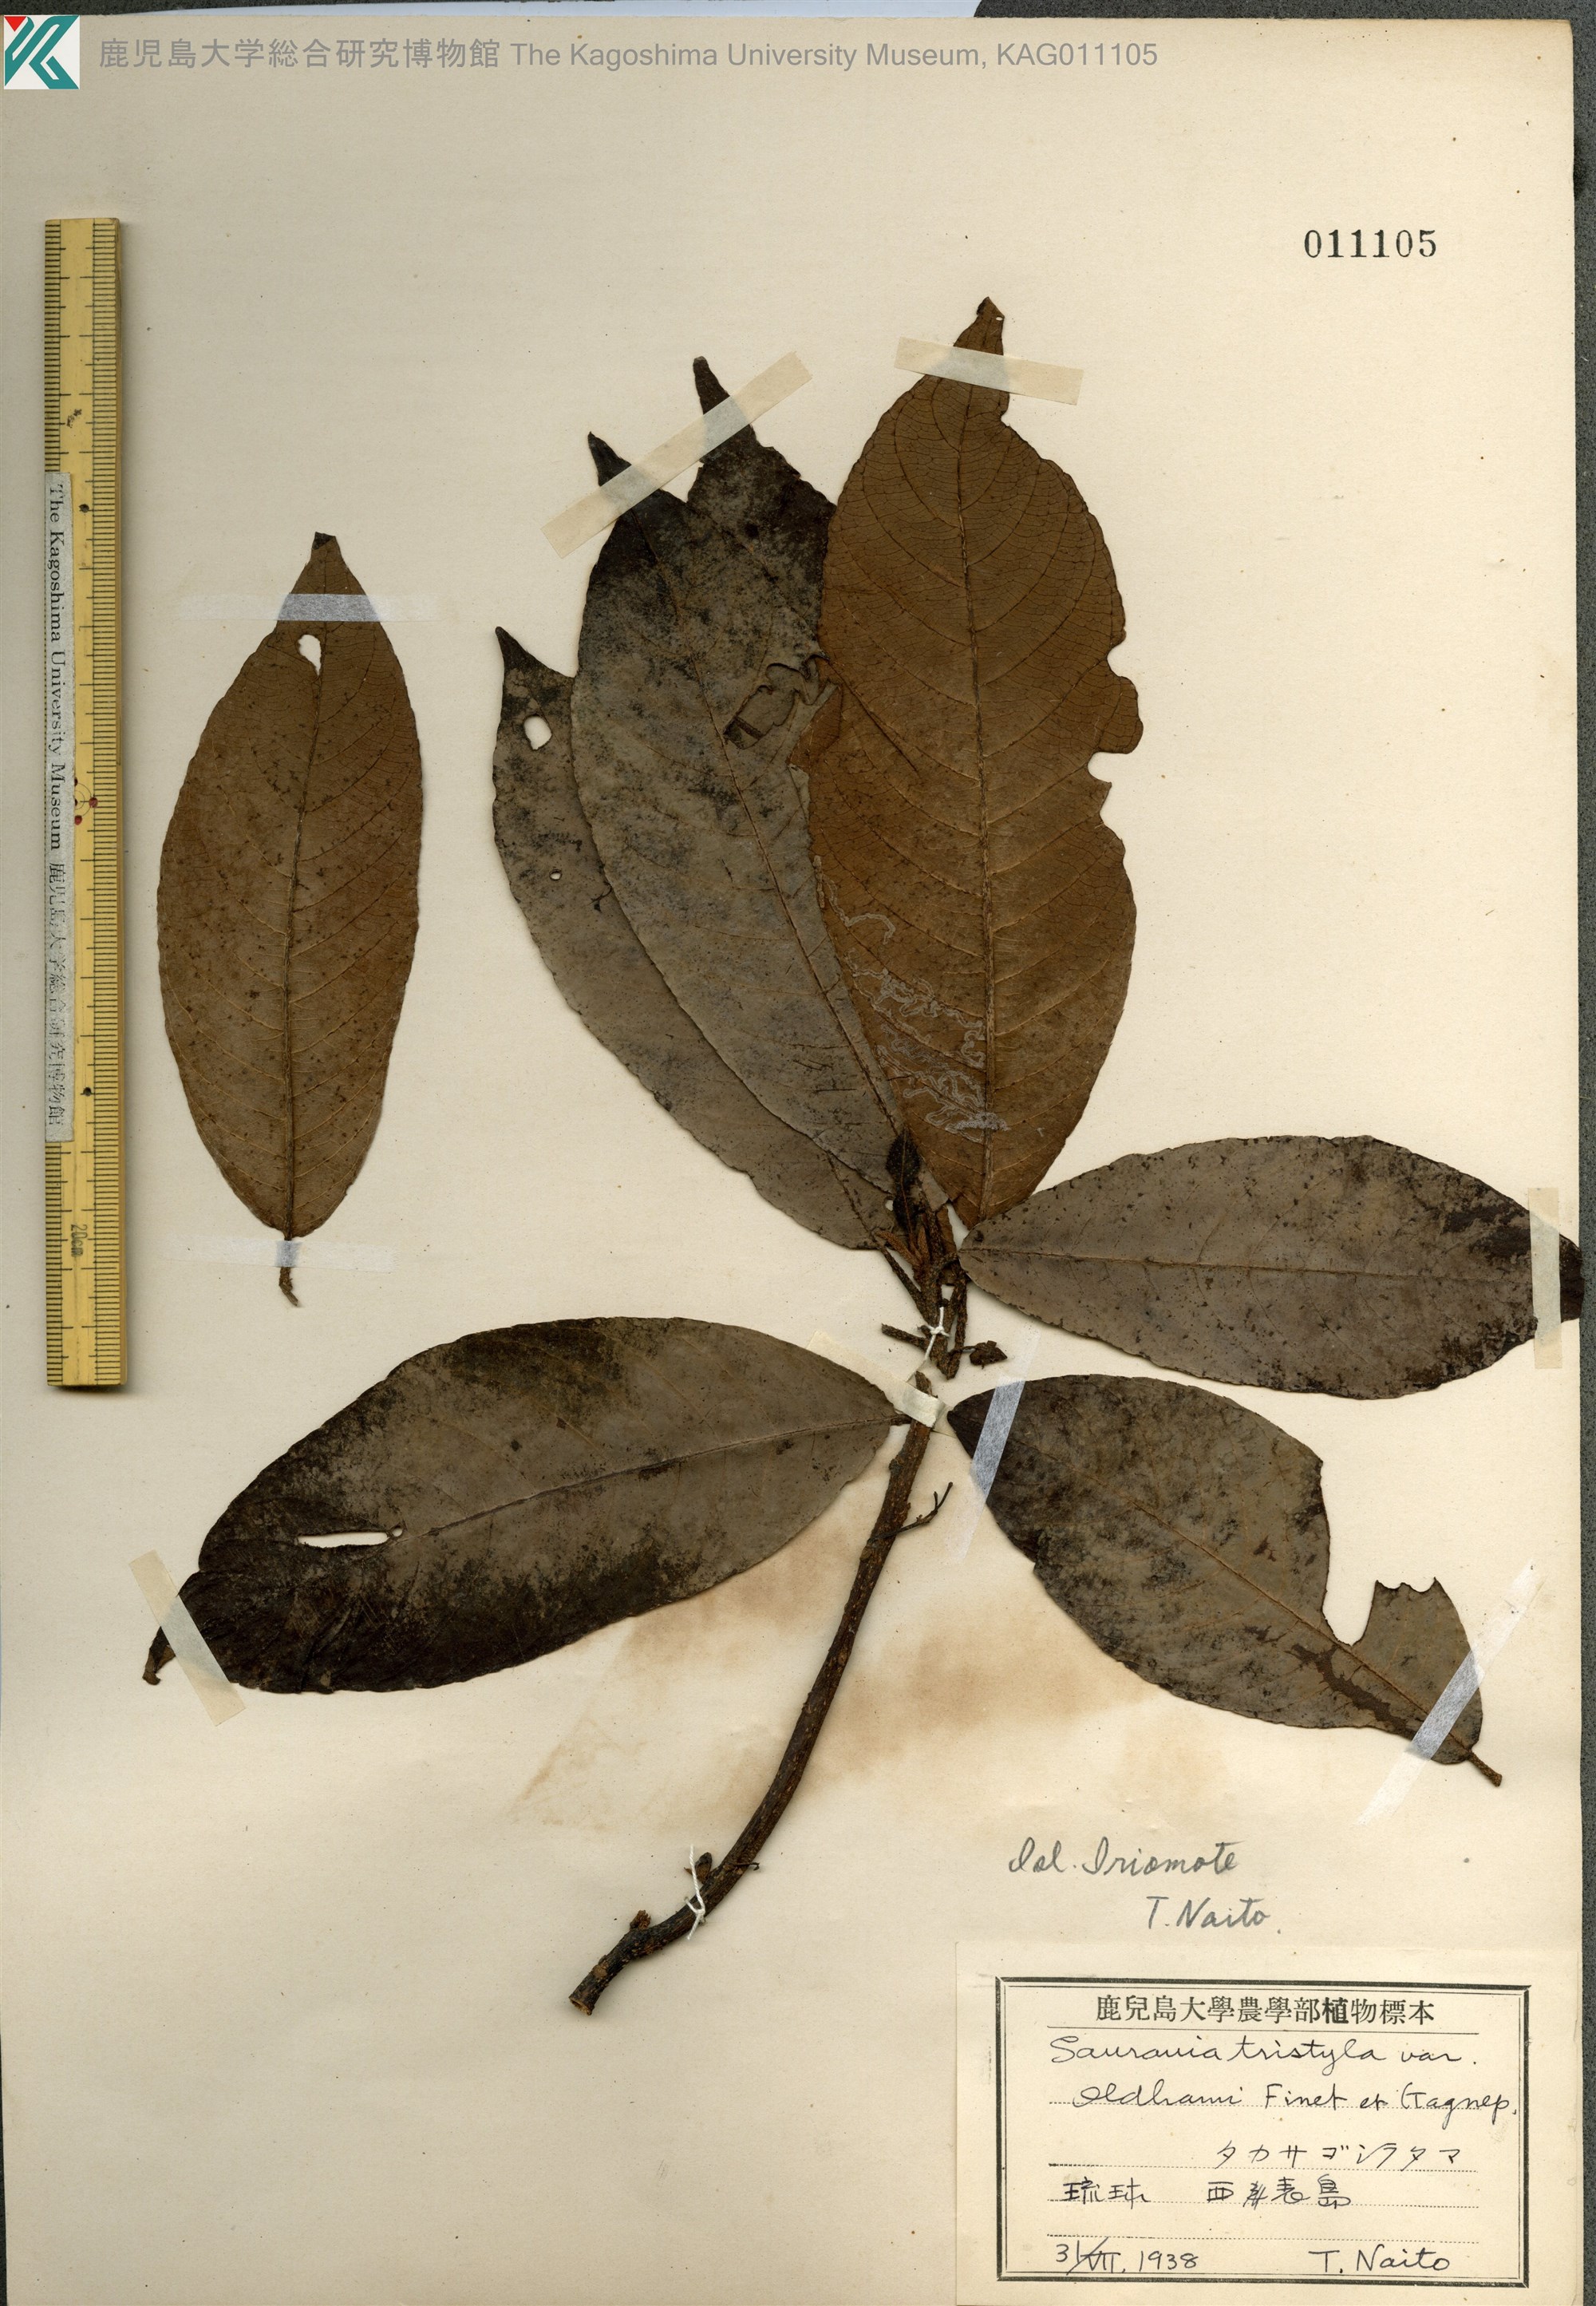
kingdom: Plantae
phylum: Tracheophyta
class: Magnoliopsida
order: Ericales
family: Actinidiaceae
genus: Saurauia
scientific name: Saurauia tristyla
